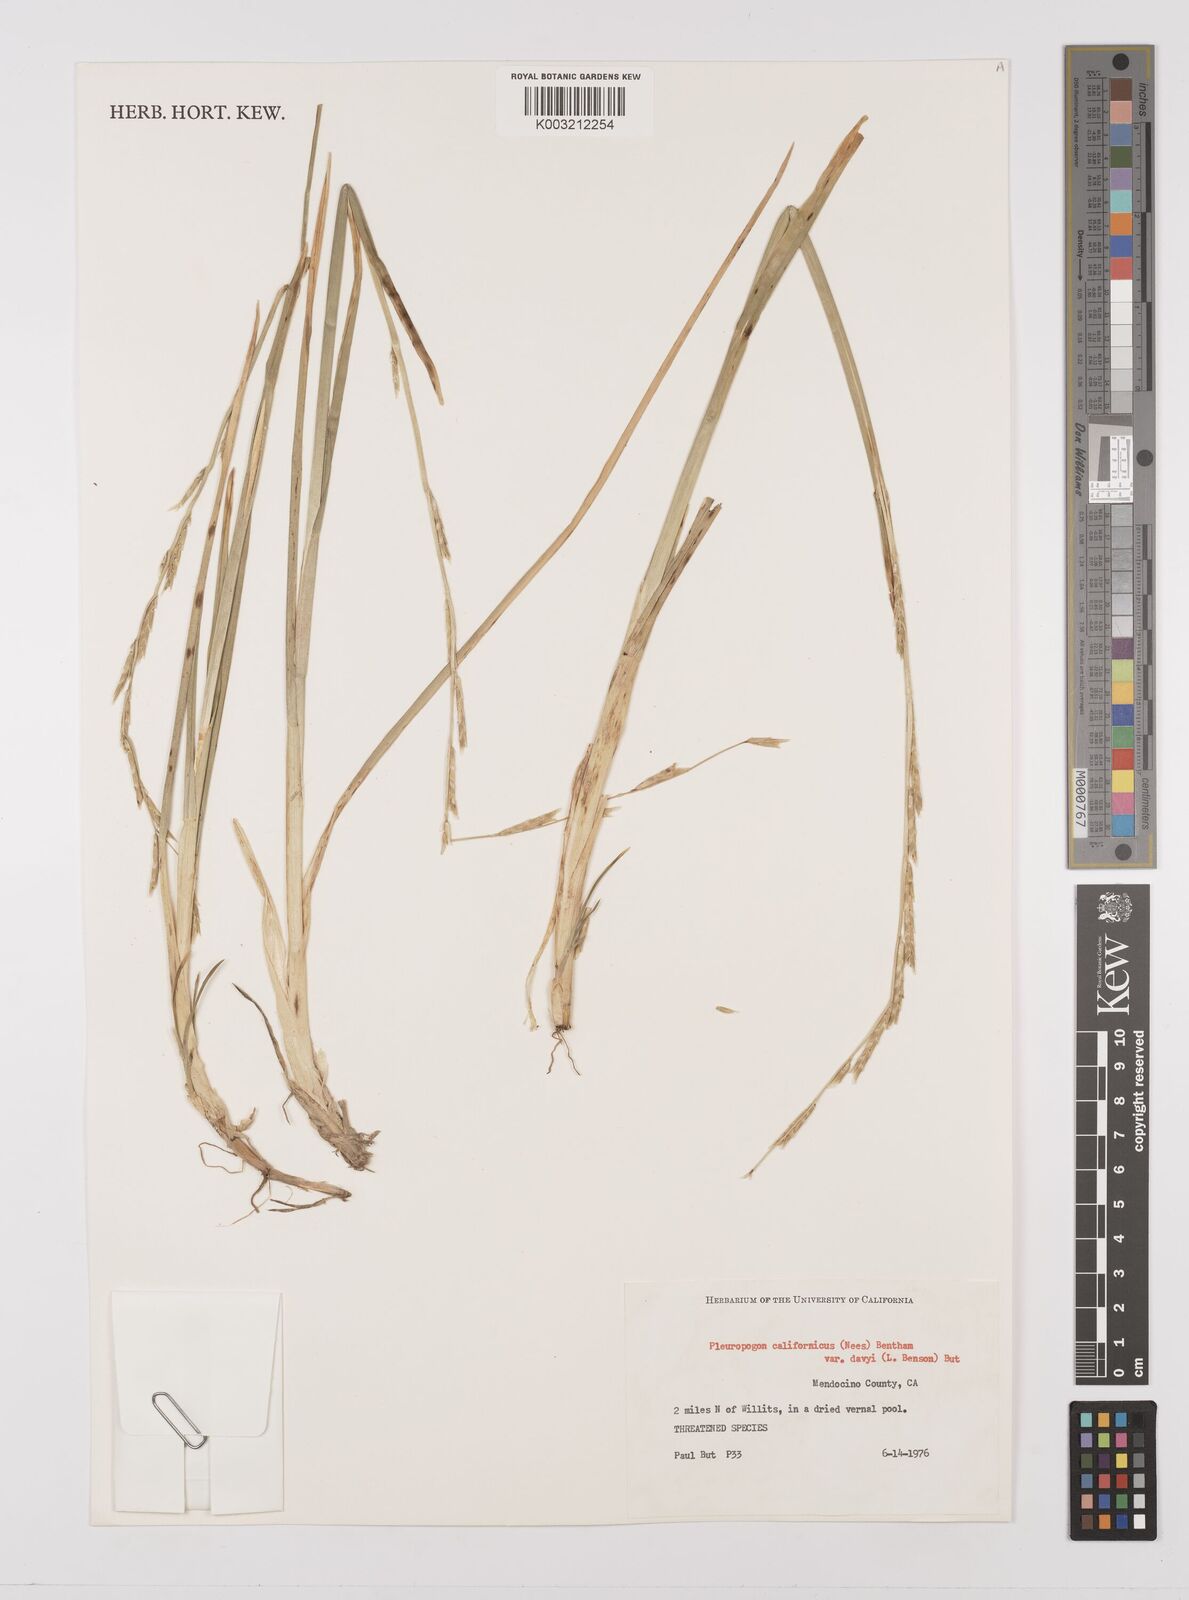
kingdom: Plantae
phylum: Tracheophyta
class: Liliopsida
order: Poales
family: Poaceae
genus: Pleuropogon
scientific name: Pleuropogon californicus
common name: California semaphore grass
